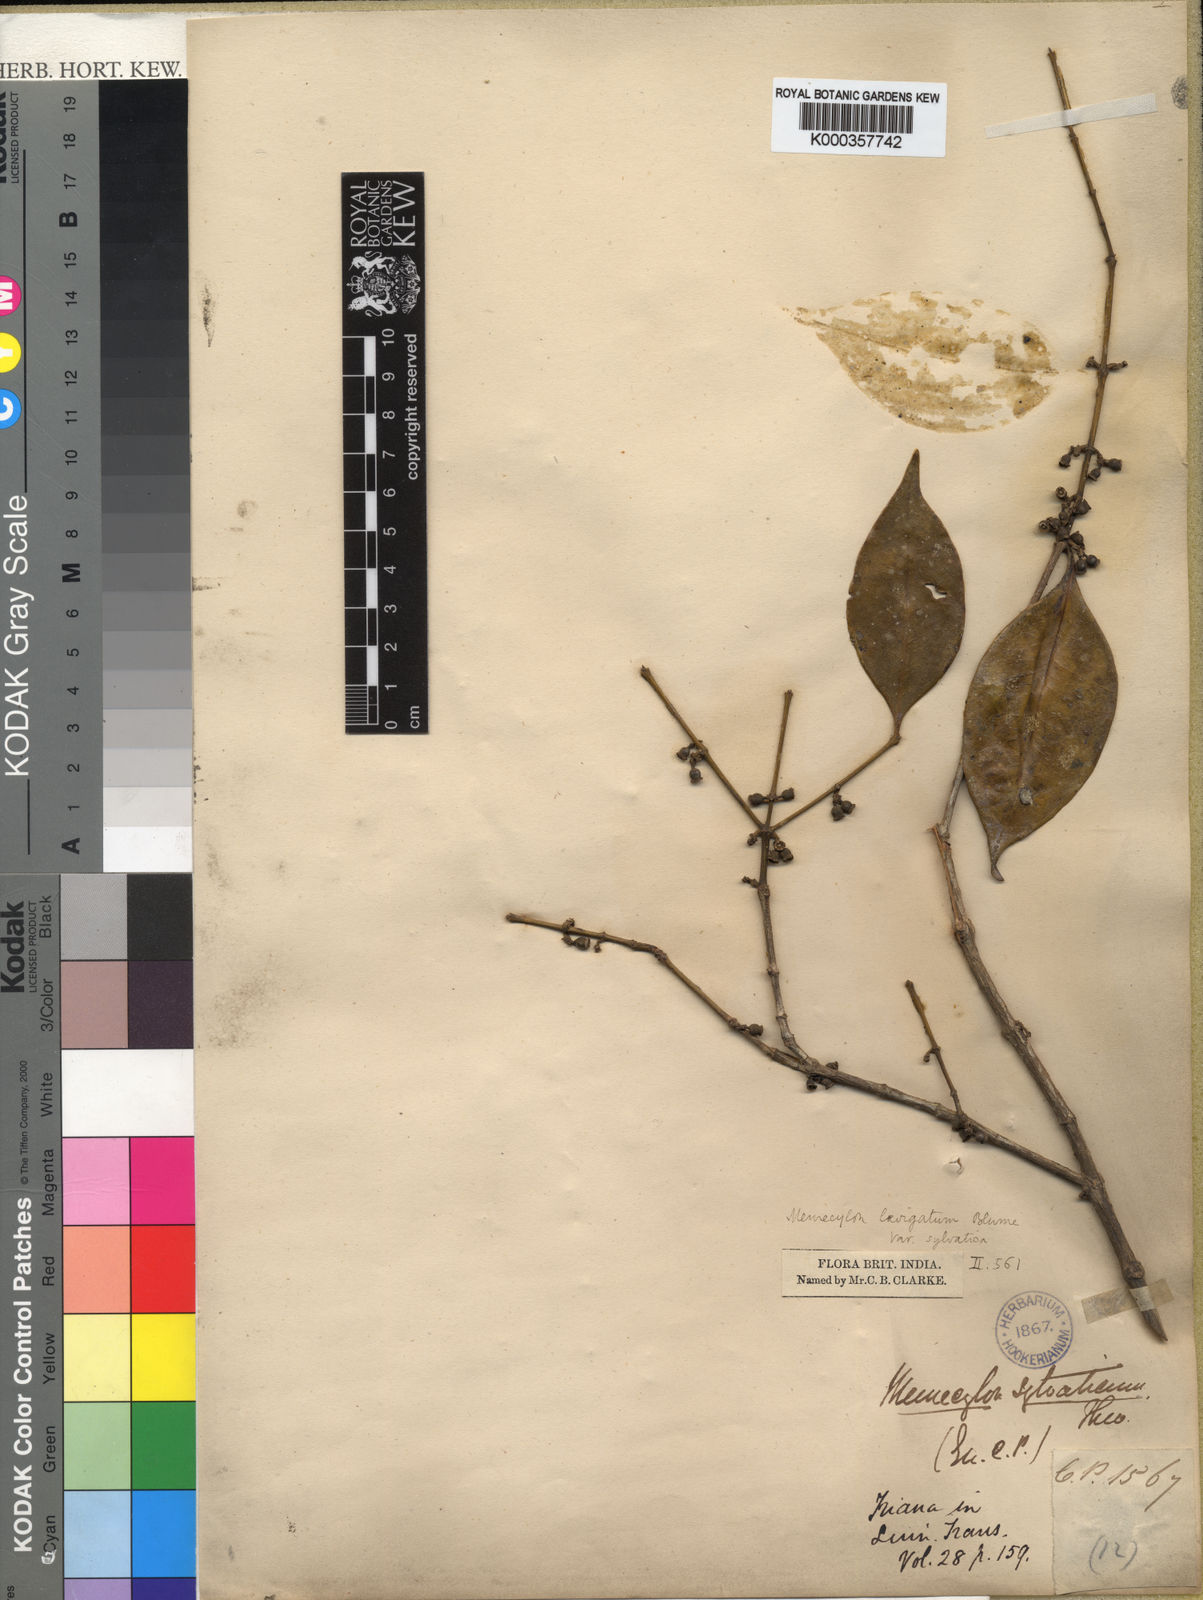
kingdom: Plantae
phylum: Tracheophyta
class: Magnoliopsida
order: Myrtales
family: Melastomataceae
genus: Memecylon
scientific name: Memecylon sylvaticum
